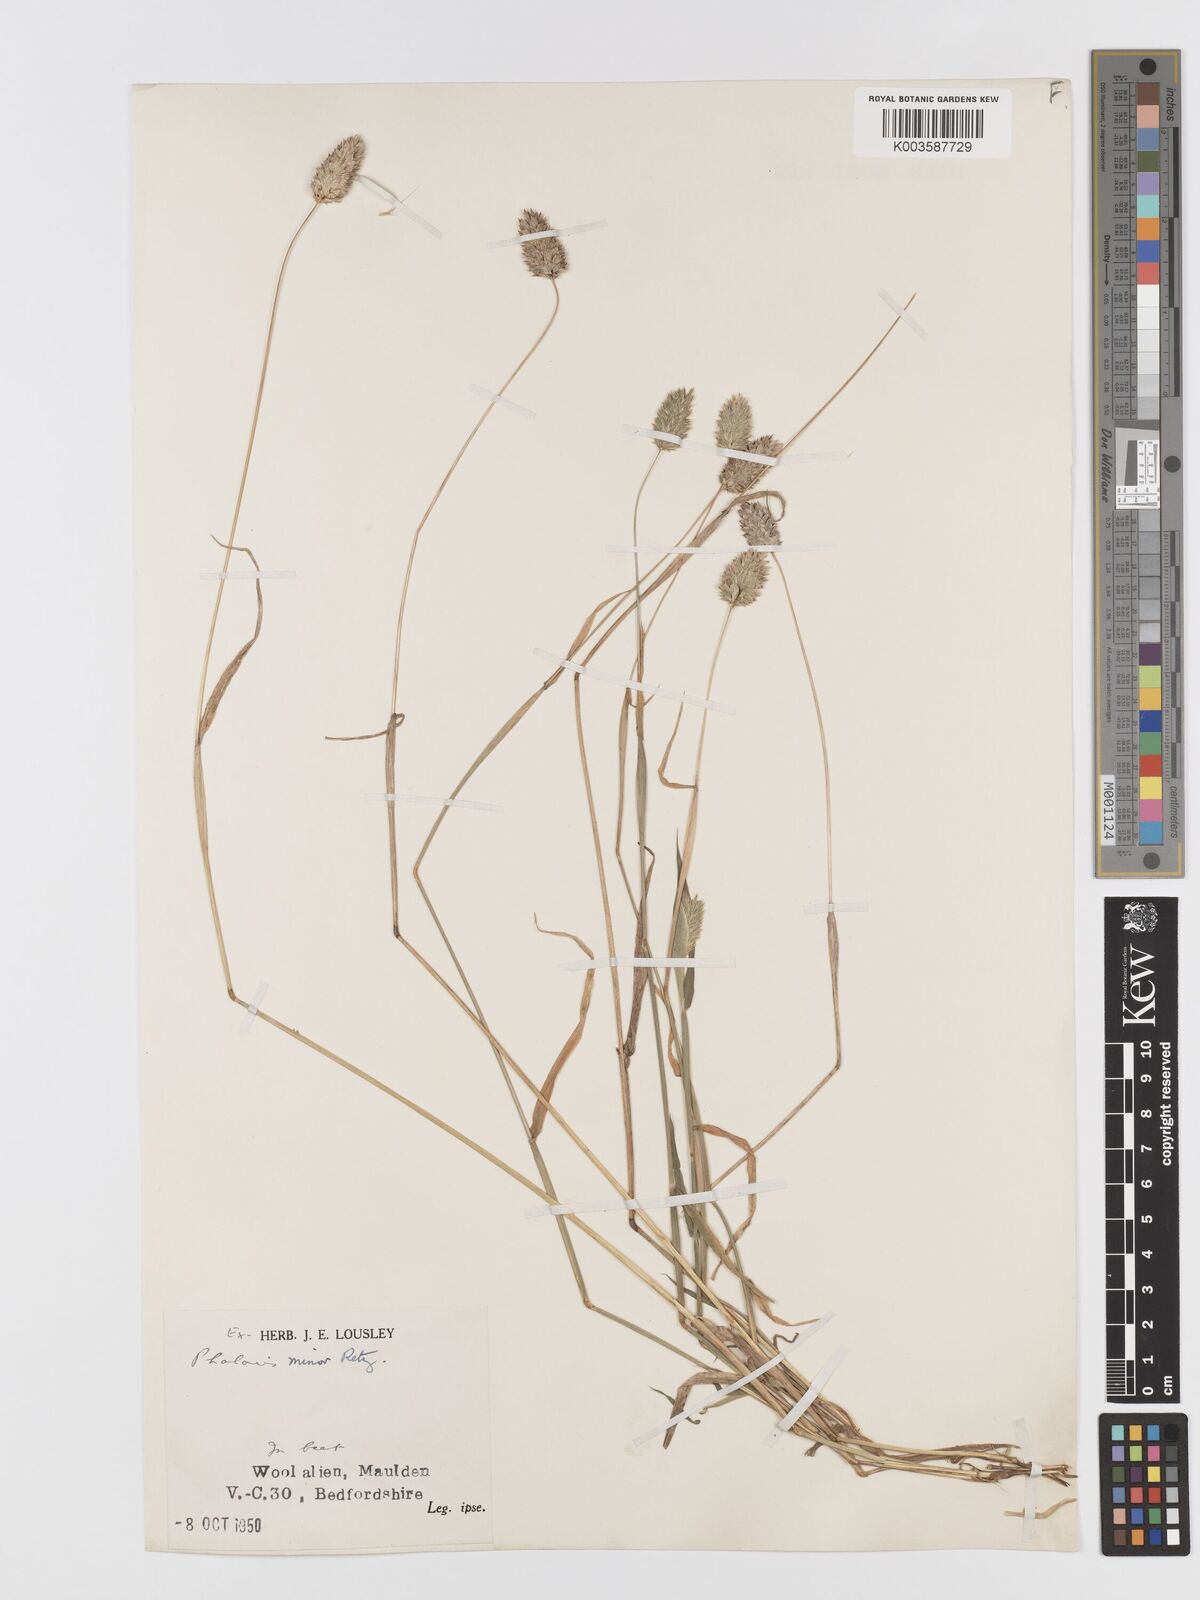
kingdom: Plantae
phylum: Tracheophyta
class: Liliopsida
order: Poales
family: Poaceae
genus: Phalaris
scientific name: Phalaris minor
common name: Littleseed canarygrass
